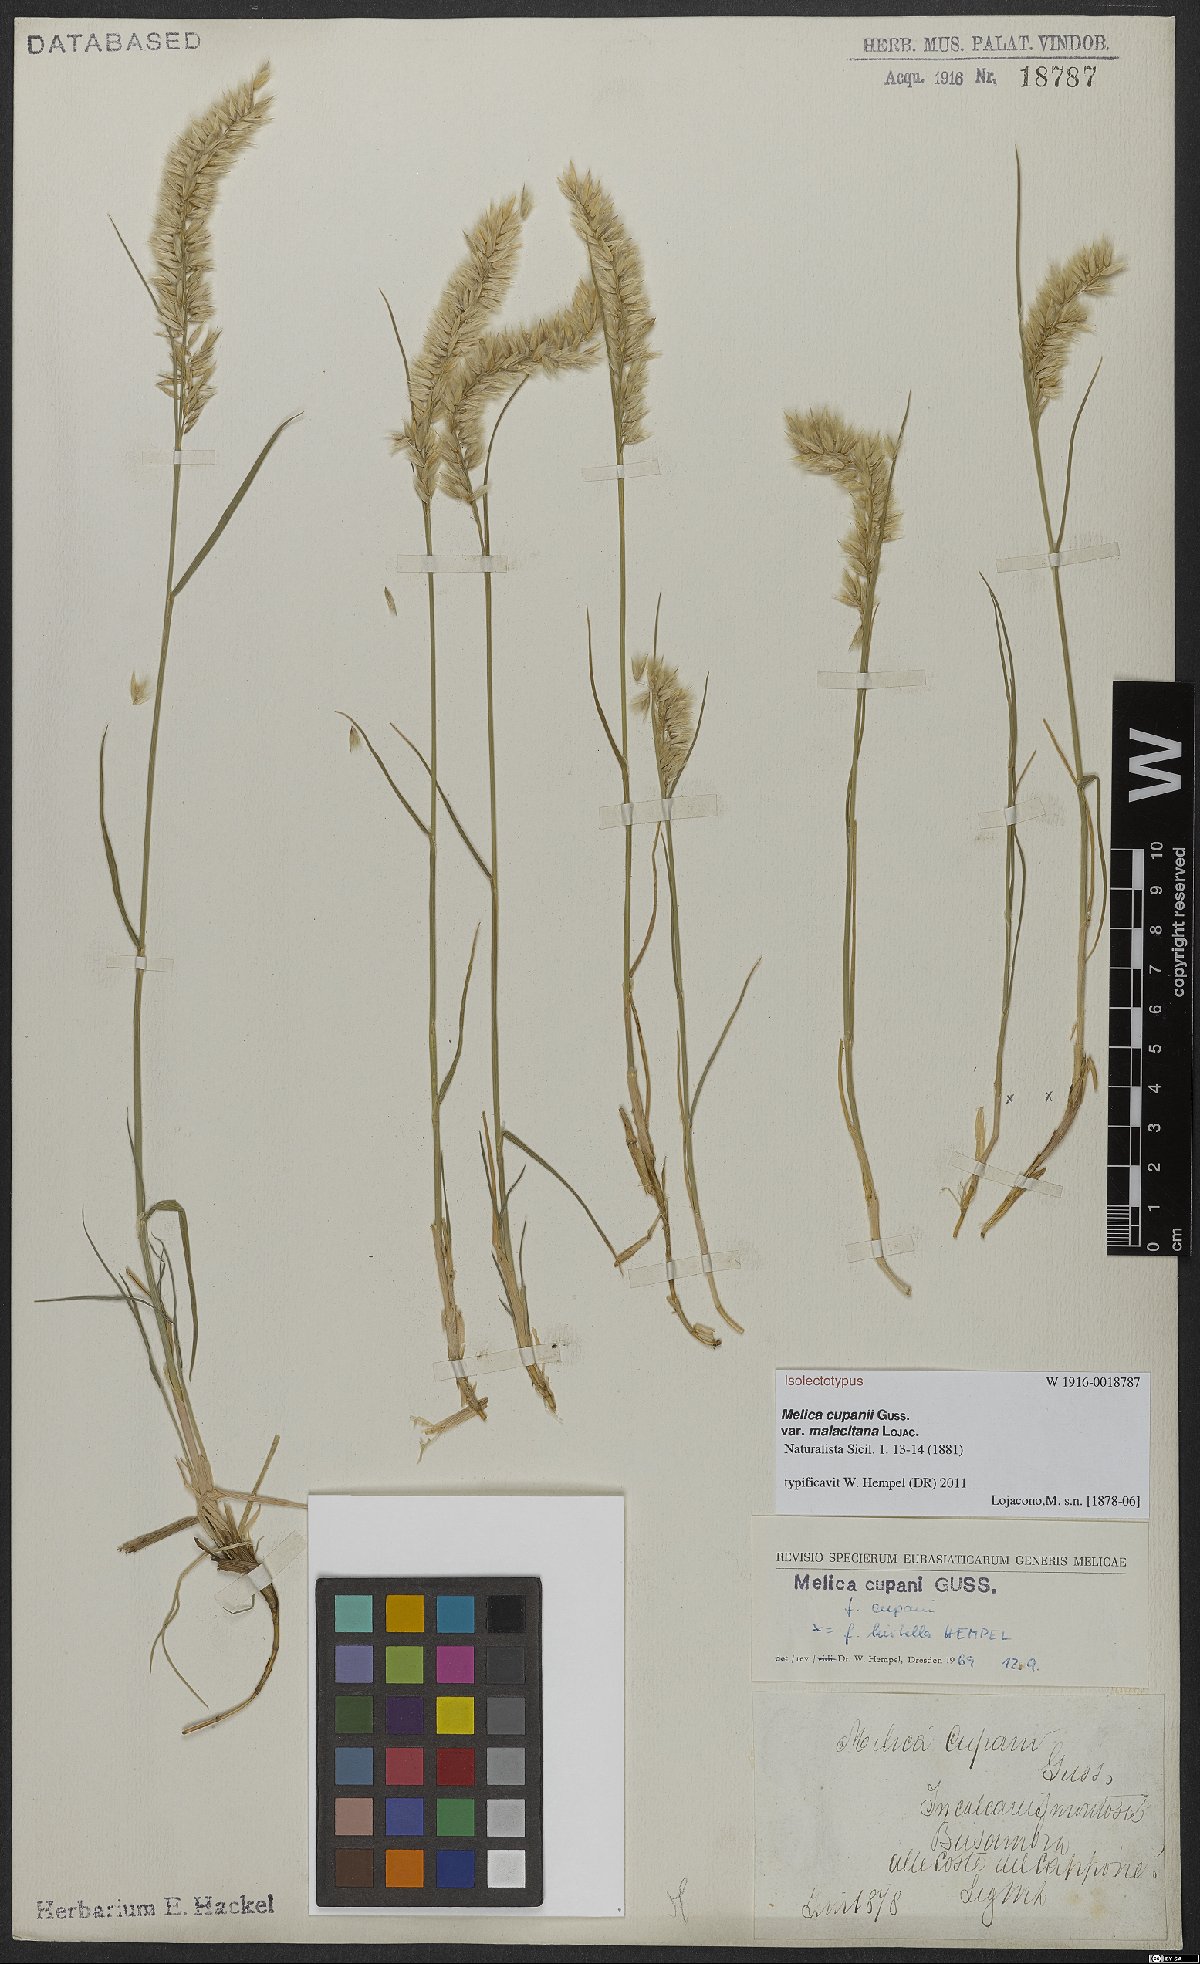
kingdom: Plantae
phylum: Tracheophyta
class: Liliopsida
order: Poales
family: Poaceae
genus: Melica
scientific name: Melica cupani
